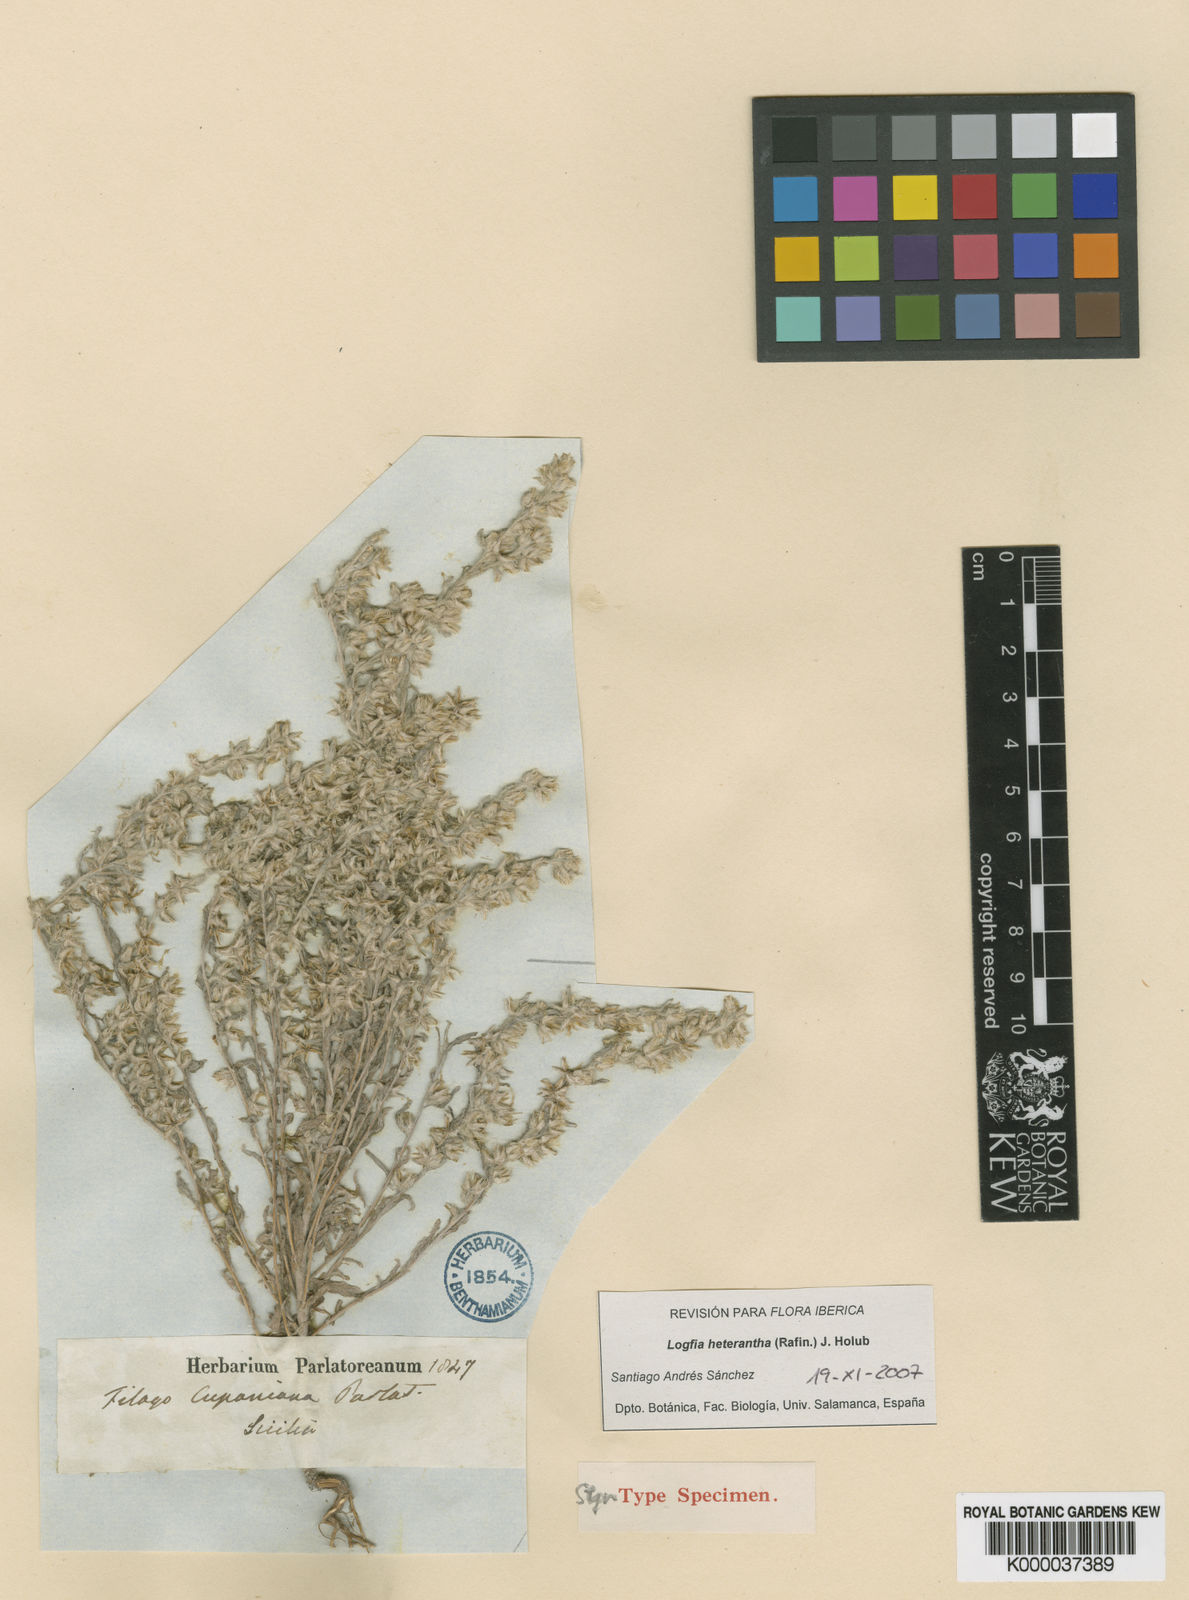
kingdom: Plantae
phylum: Tracheophyta
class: Magnoliopsida
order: Asterales
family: Asteraceae
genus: Logfia
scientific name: Logfia heterantha
